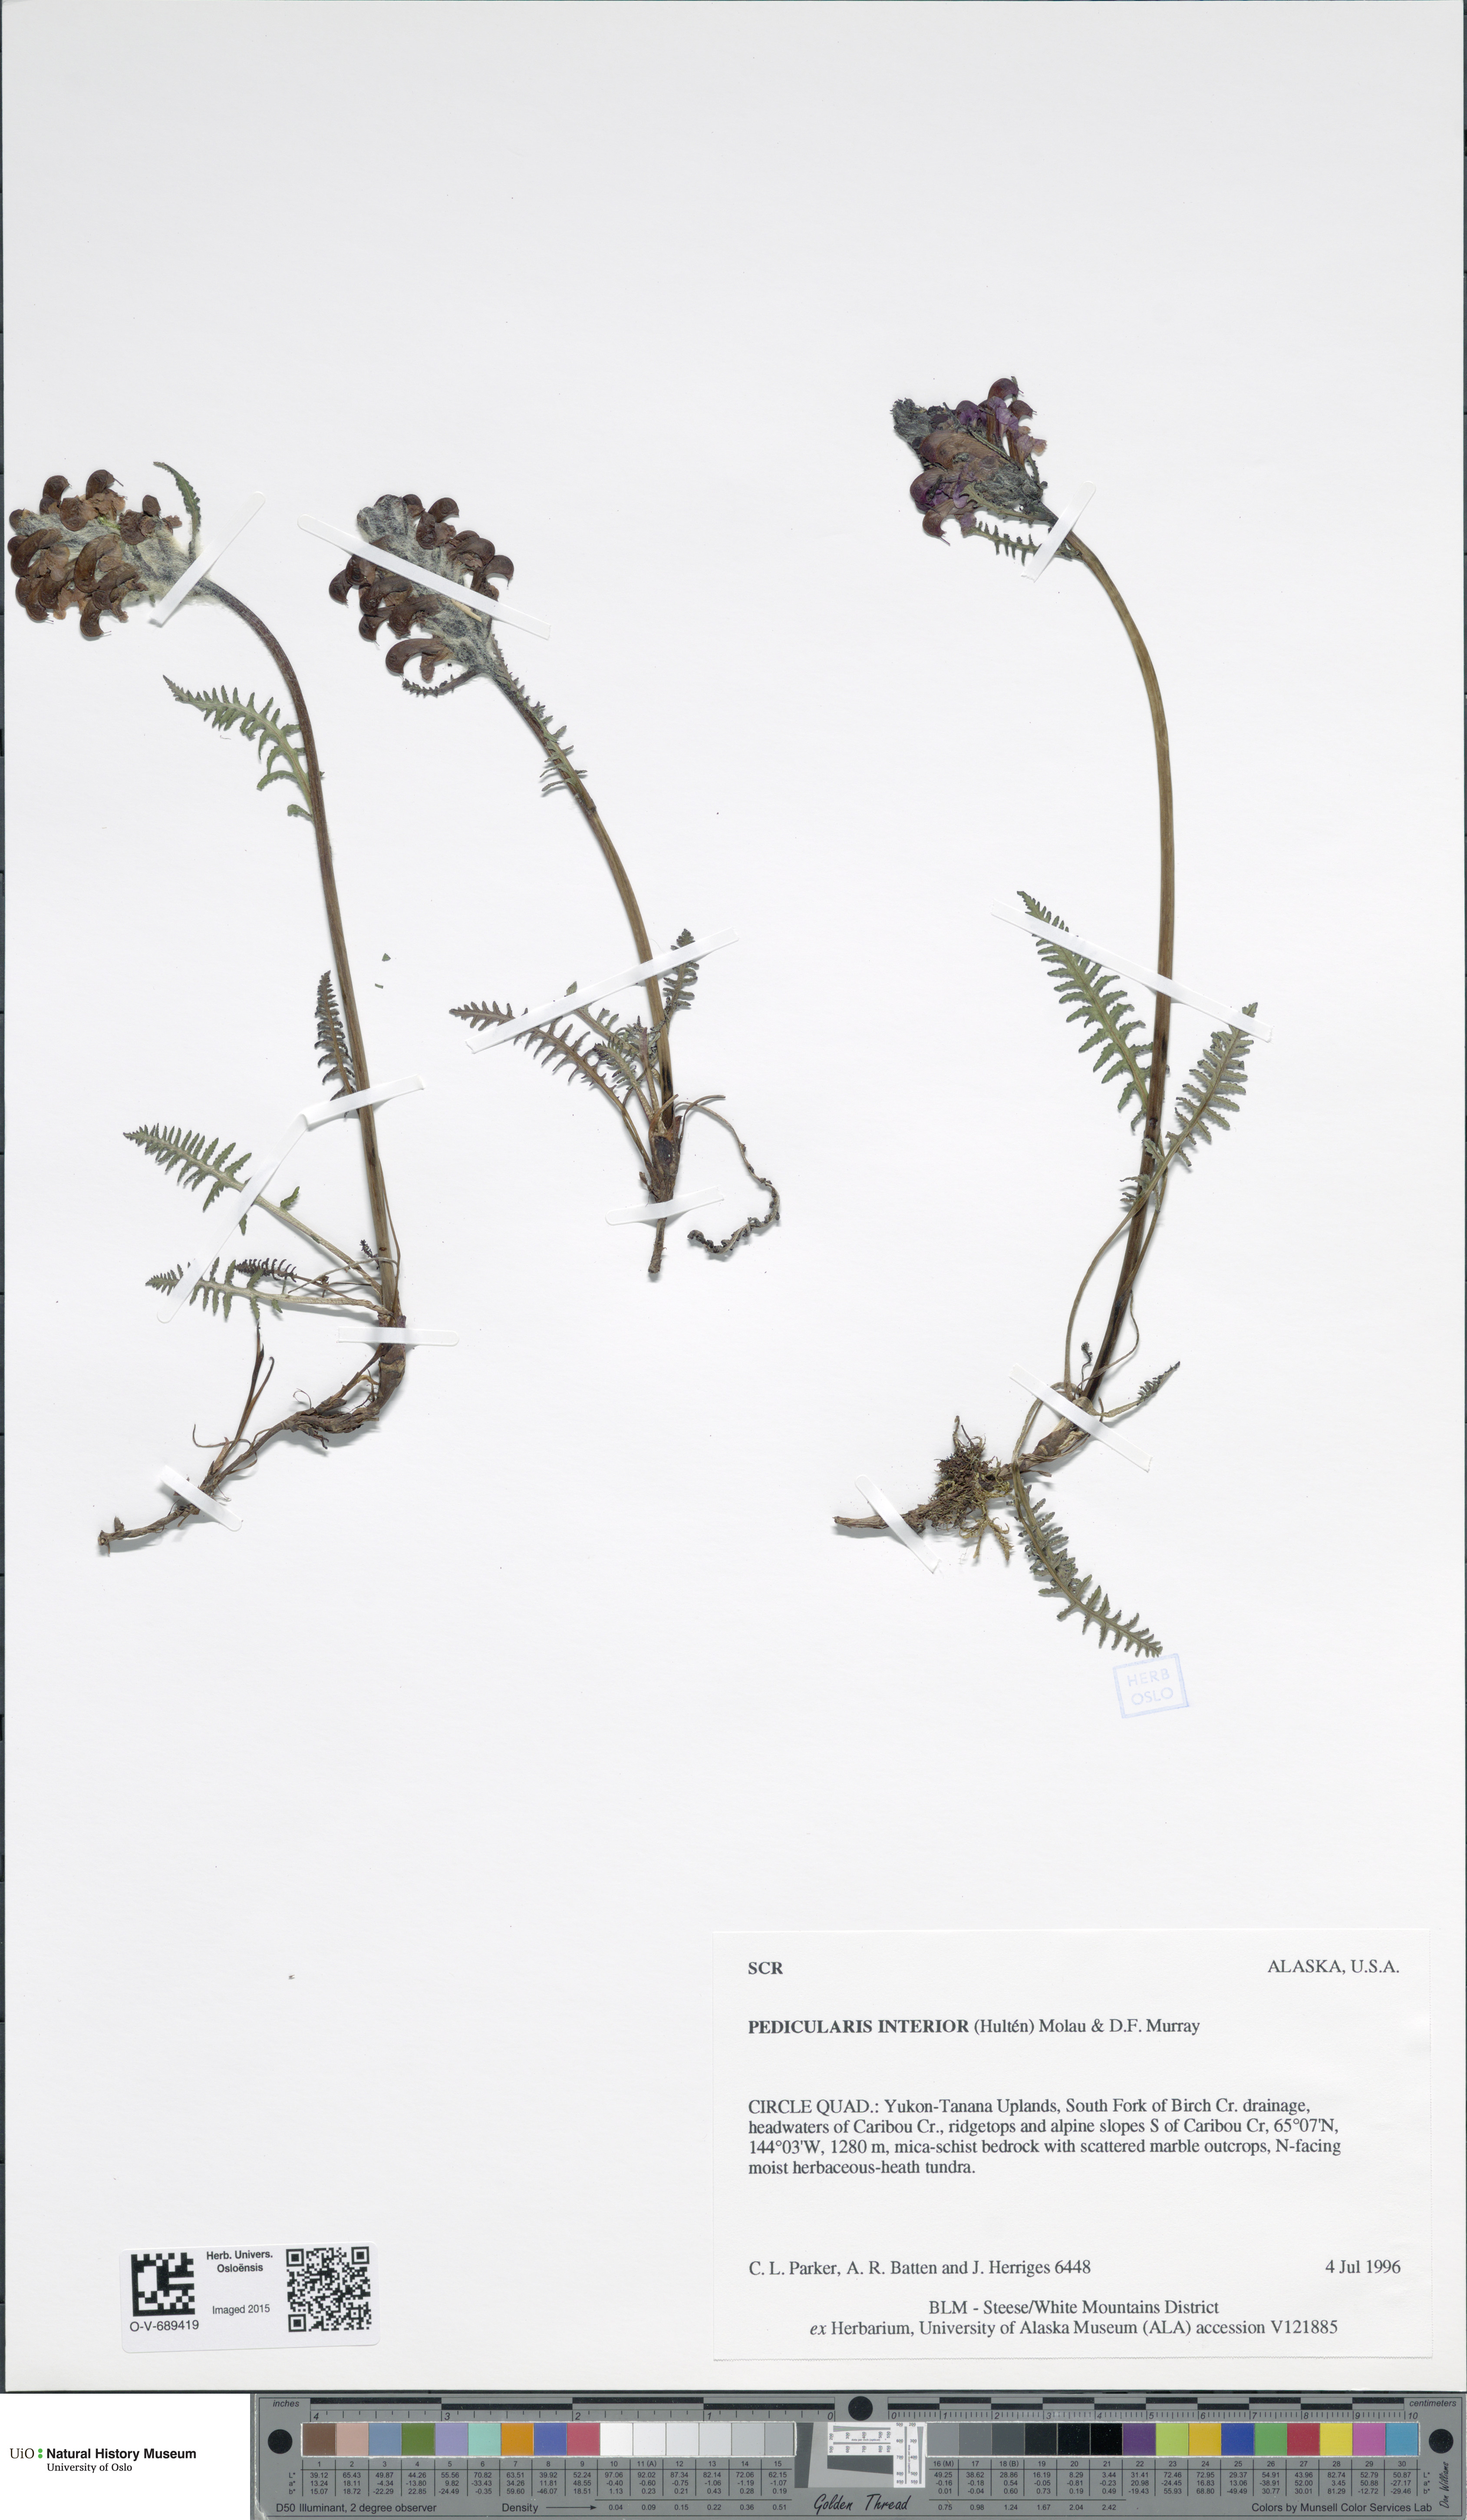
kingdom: Plantae
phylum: Tracheophyta
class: Magnoliopsida
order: Lamiales
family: Orobanchaceae
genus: Pedicularis
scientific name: Pedicularis interior
